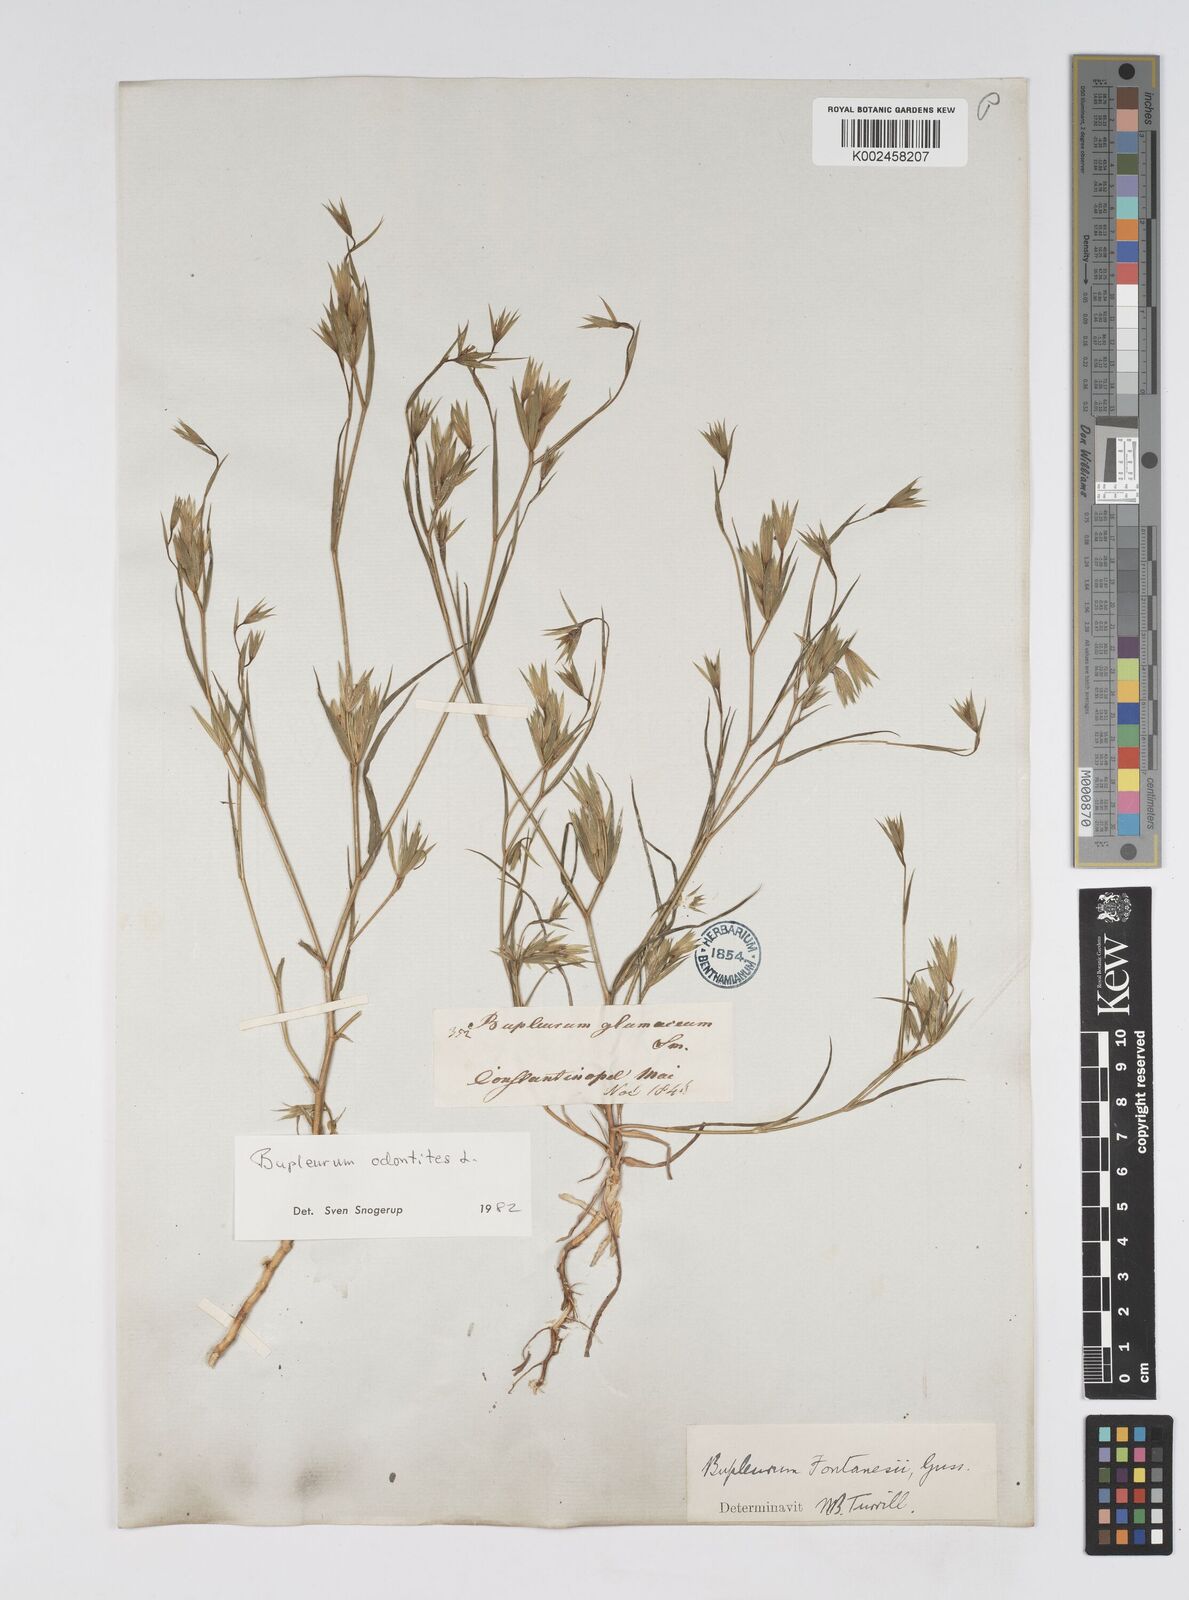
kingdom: Plantae
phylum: Tracheophyta
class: Magnoliopsida
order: Apiales
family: Apiaceae
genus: Bupleurum
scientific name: Bupleurum odontites
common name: Narrowleaf thorow wax
